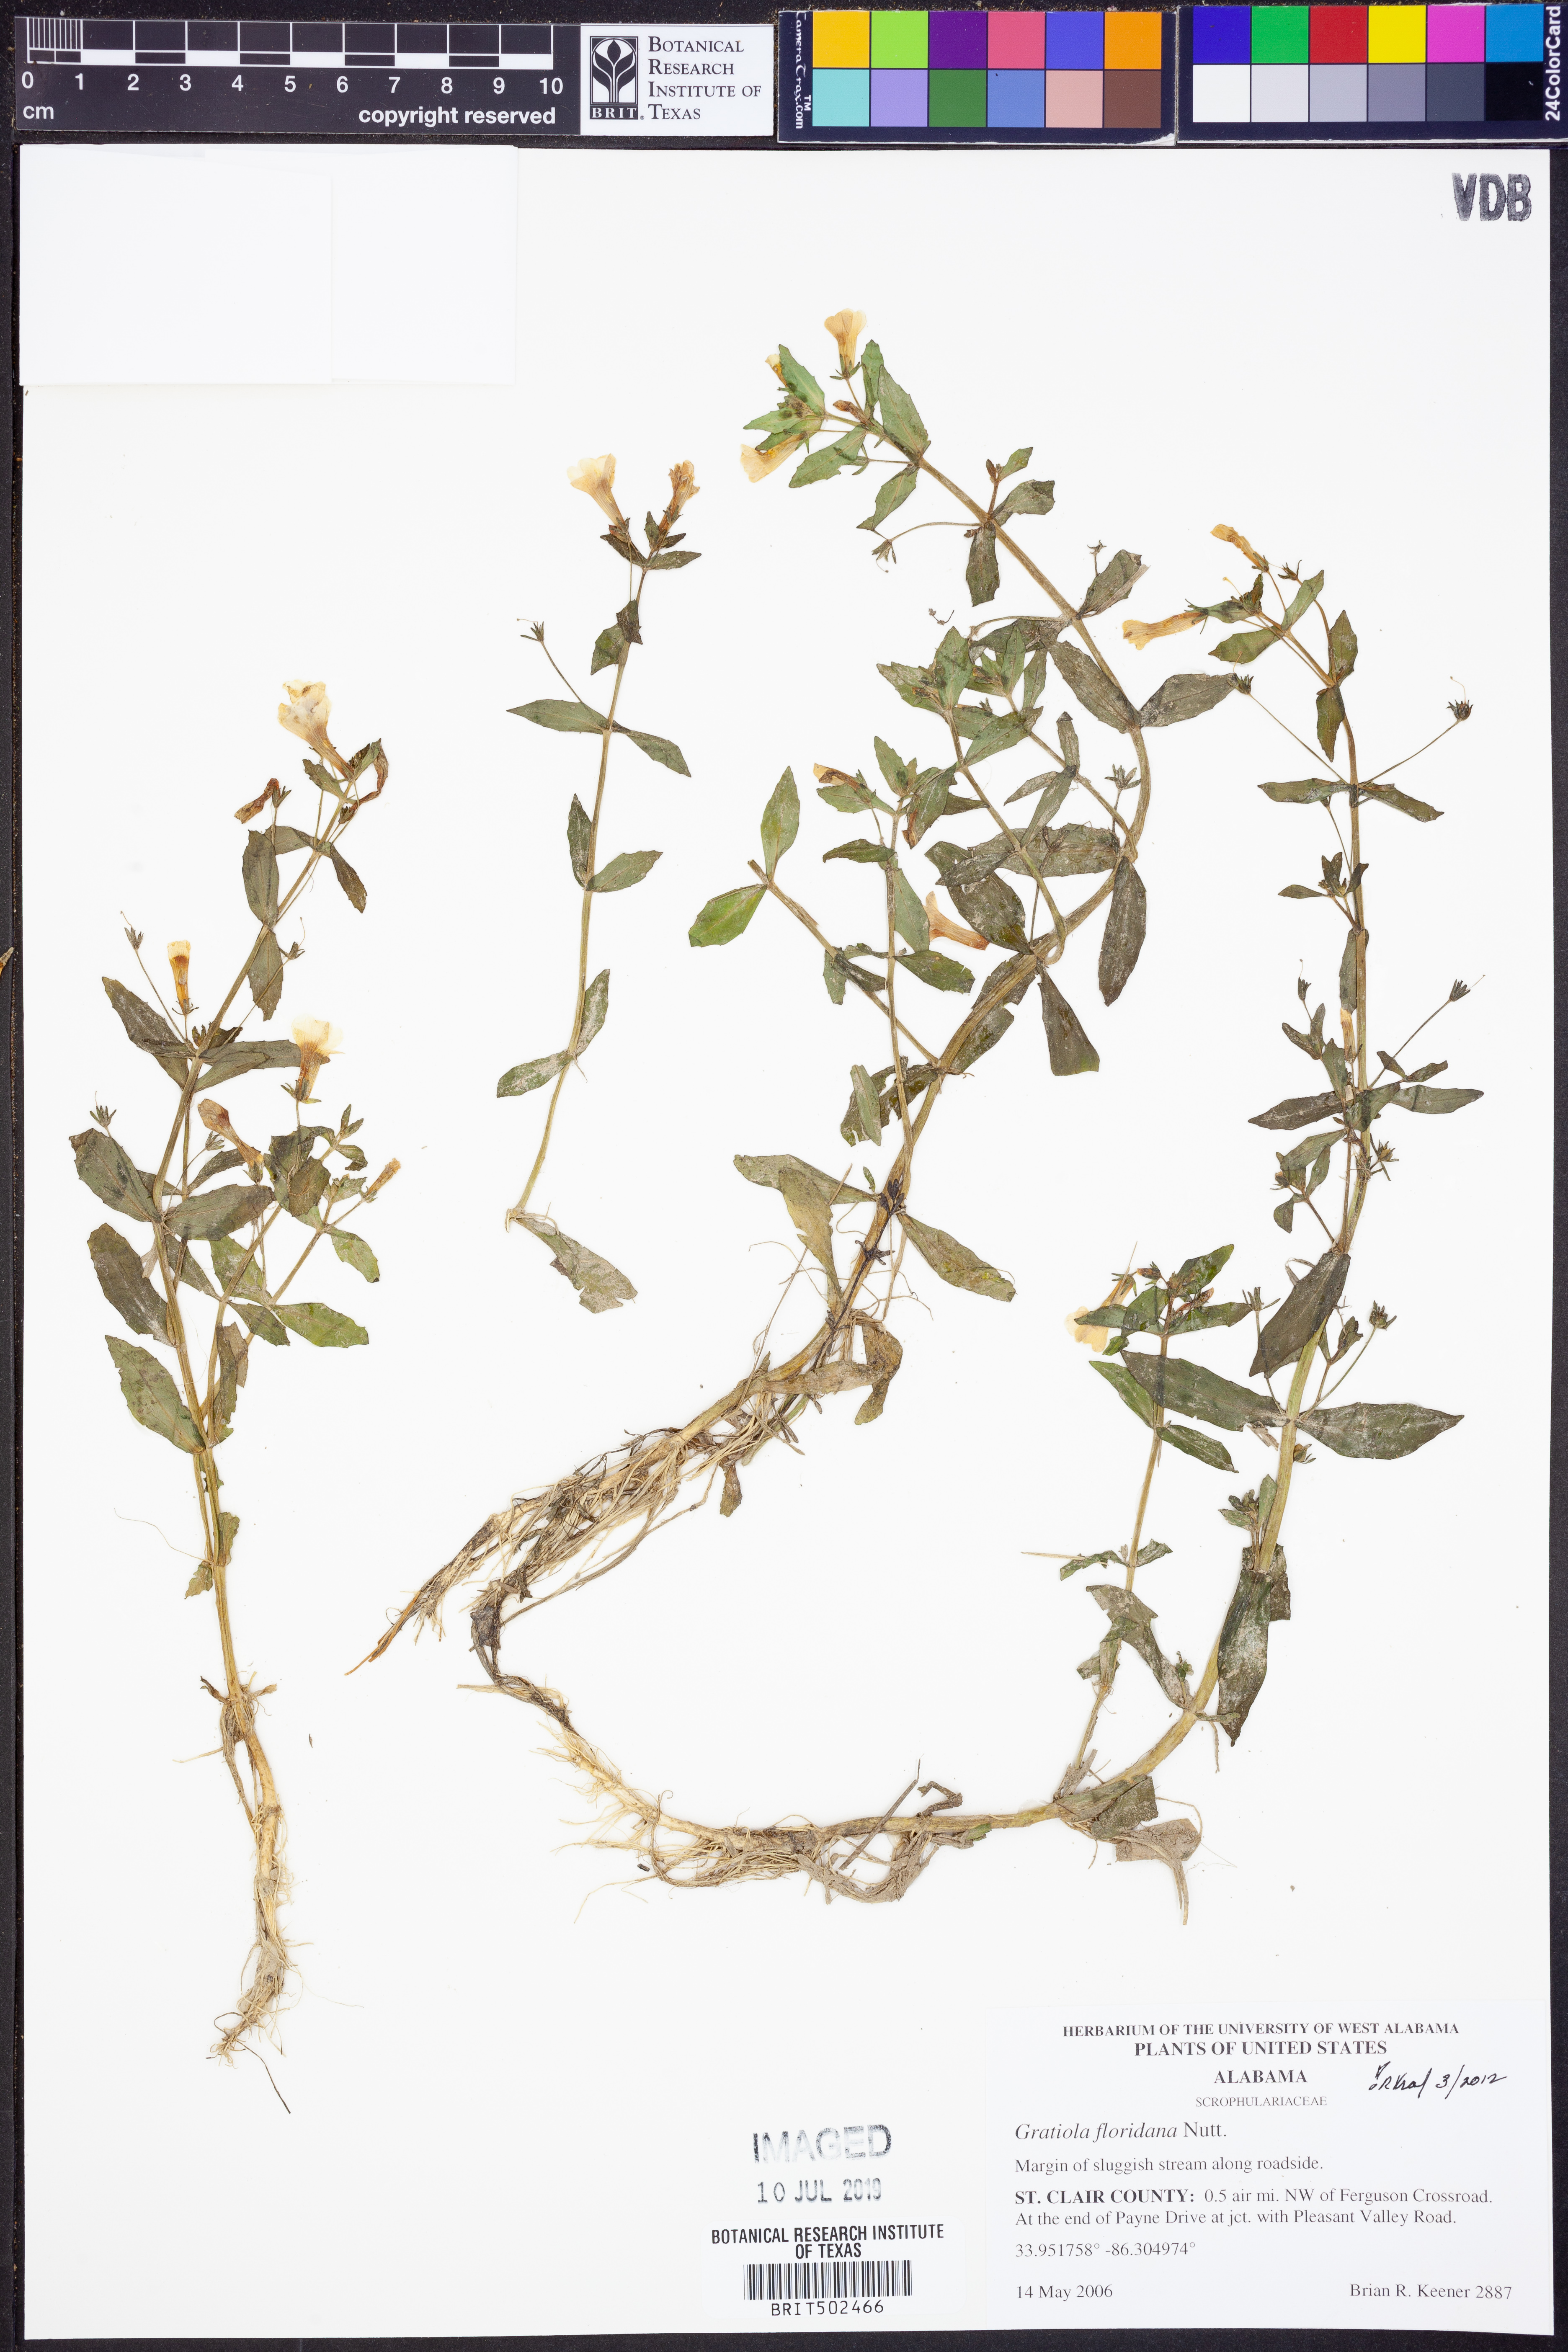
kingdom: Plantae
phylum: Tracheophyta
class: Magnoliopsida
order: Lamiales
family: Plantaginaceae
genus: Gratiola
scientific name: Gratiola floridana
